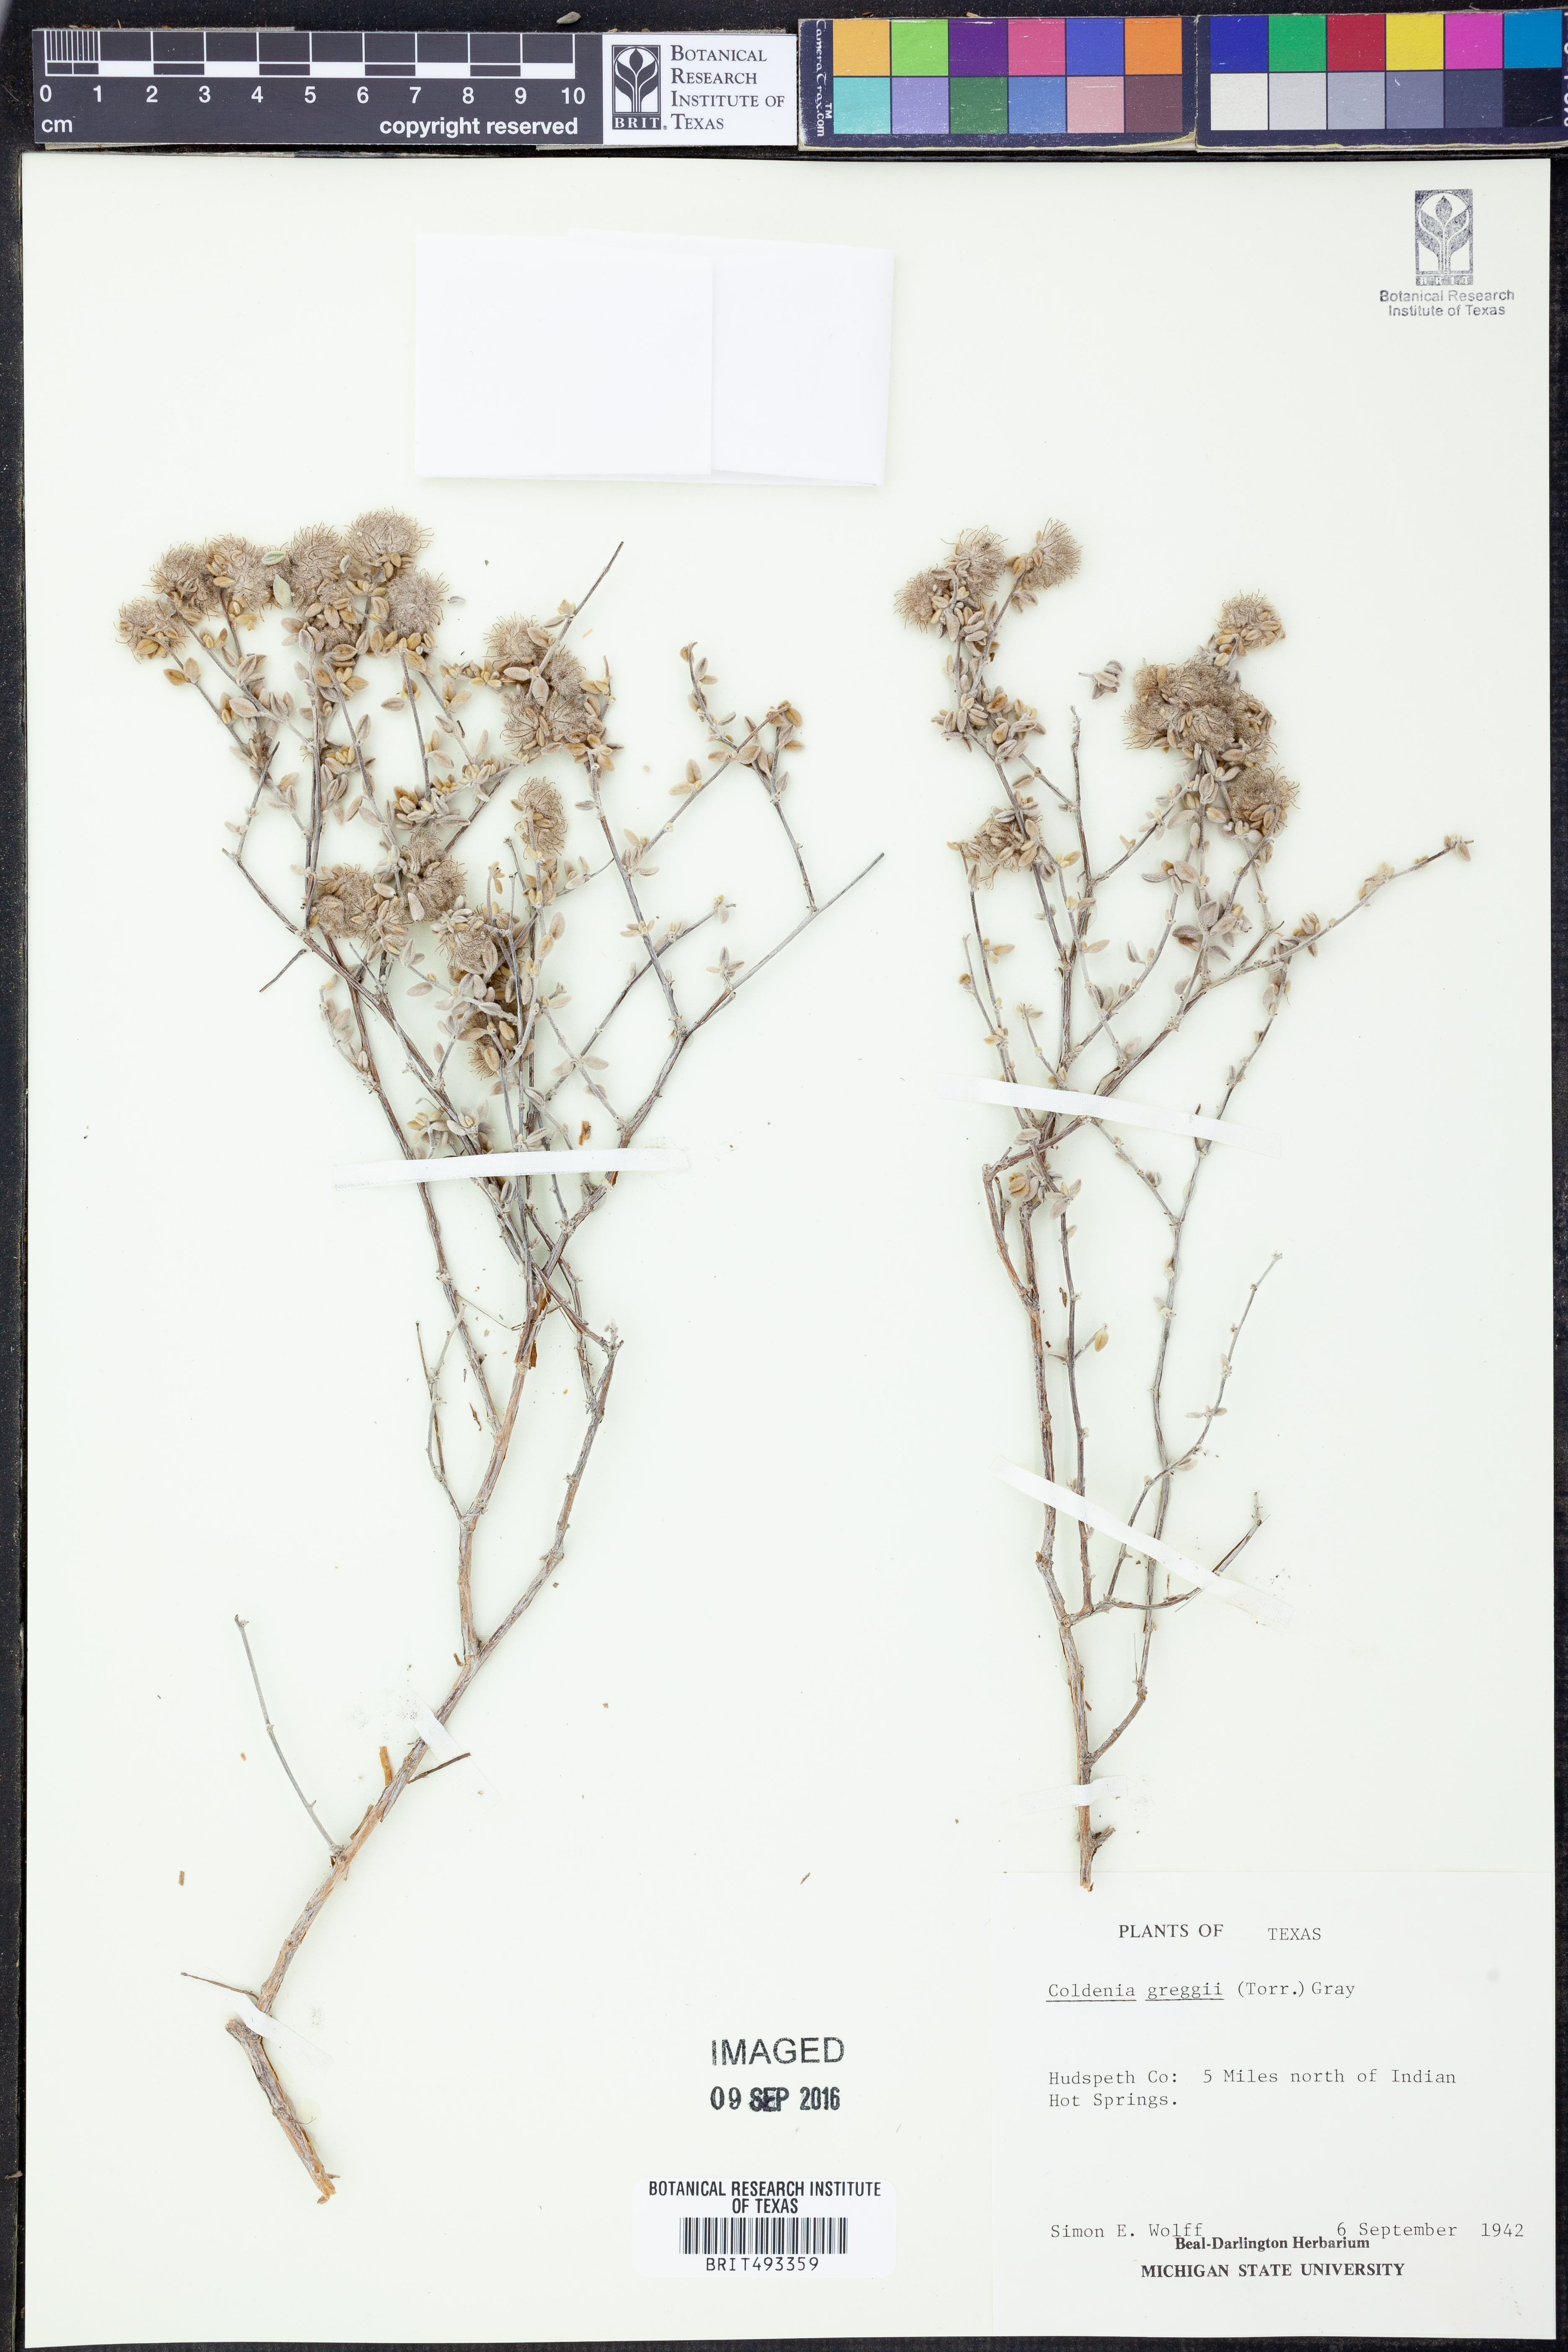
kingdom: Plantae
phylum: Tracheophyta
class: Magnoliopsida
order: Boraginales
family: Ehretiaceae
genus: Tiquilia
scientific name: Tiquilia greggii
